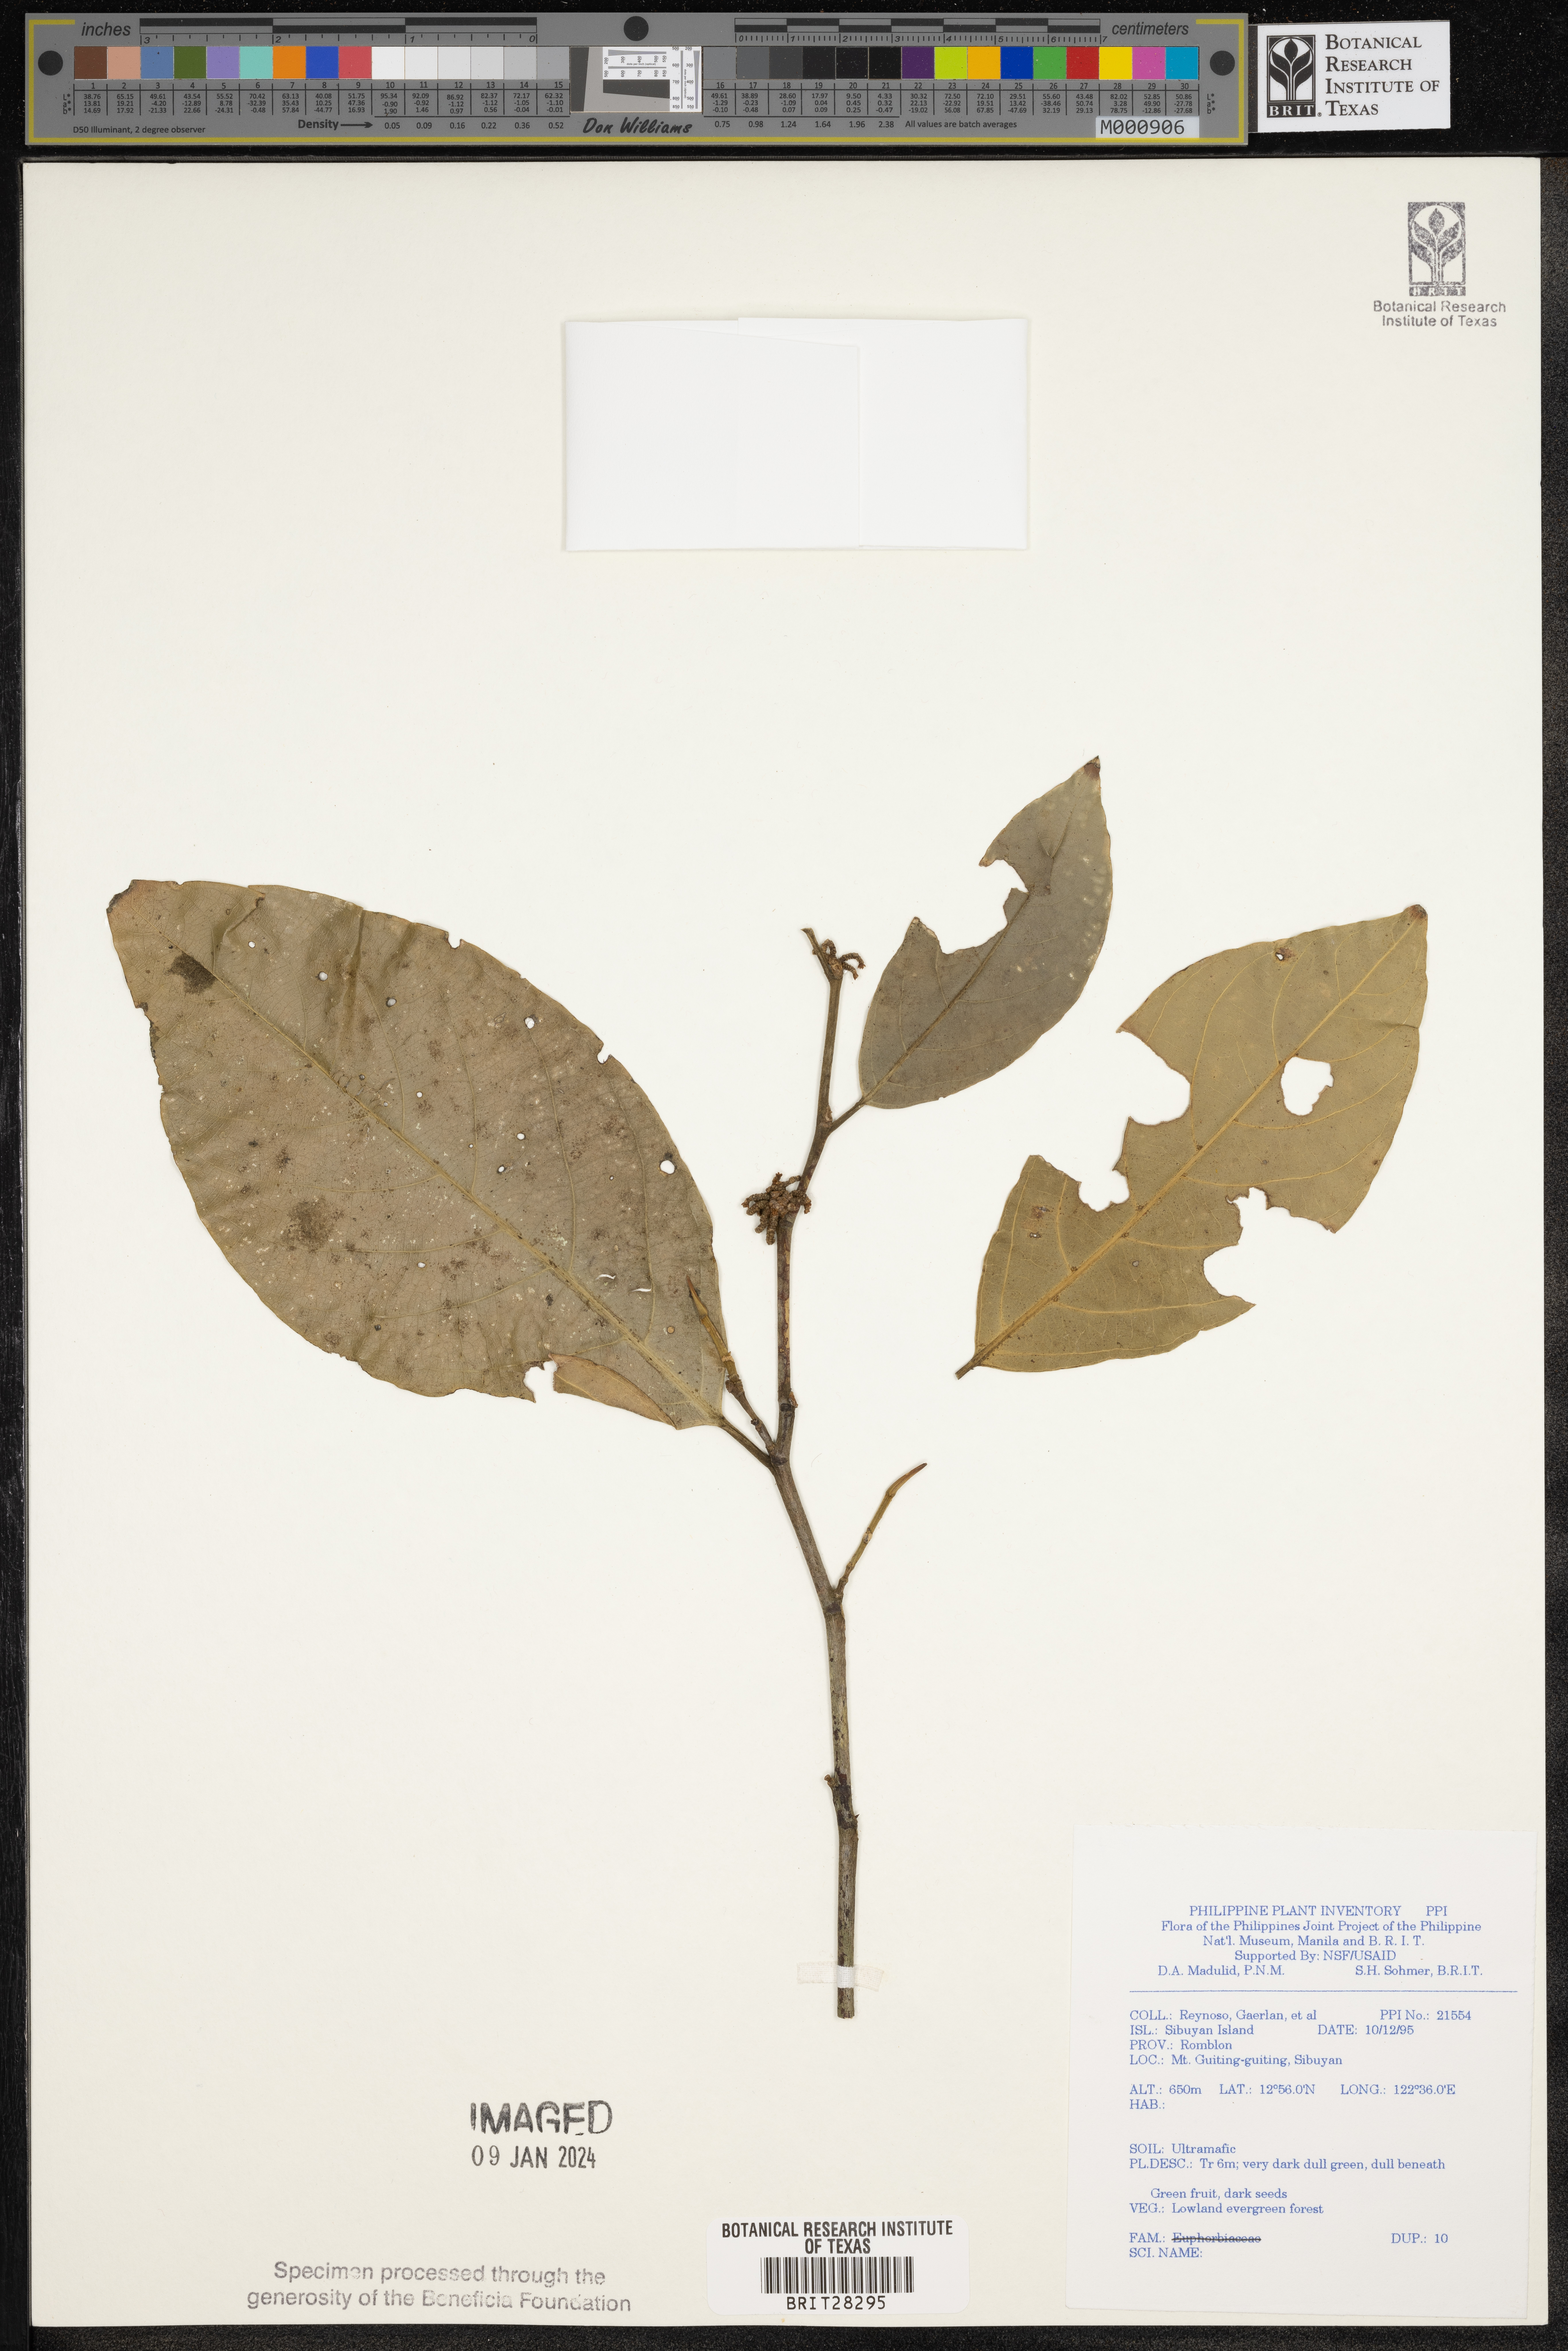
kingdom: Plantae
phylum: Tracheophyta
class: Magnoliopsida
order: Malpighiales
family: Euphorbiaceae
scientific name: Euphorbiaceae
